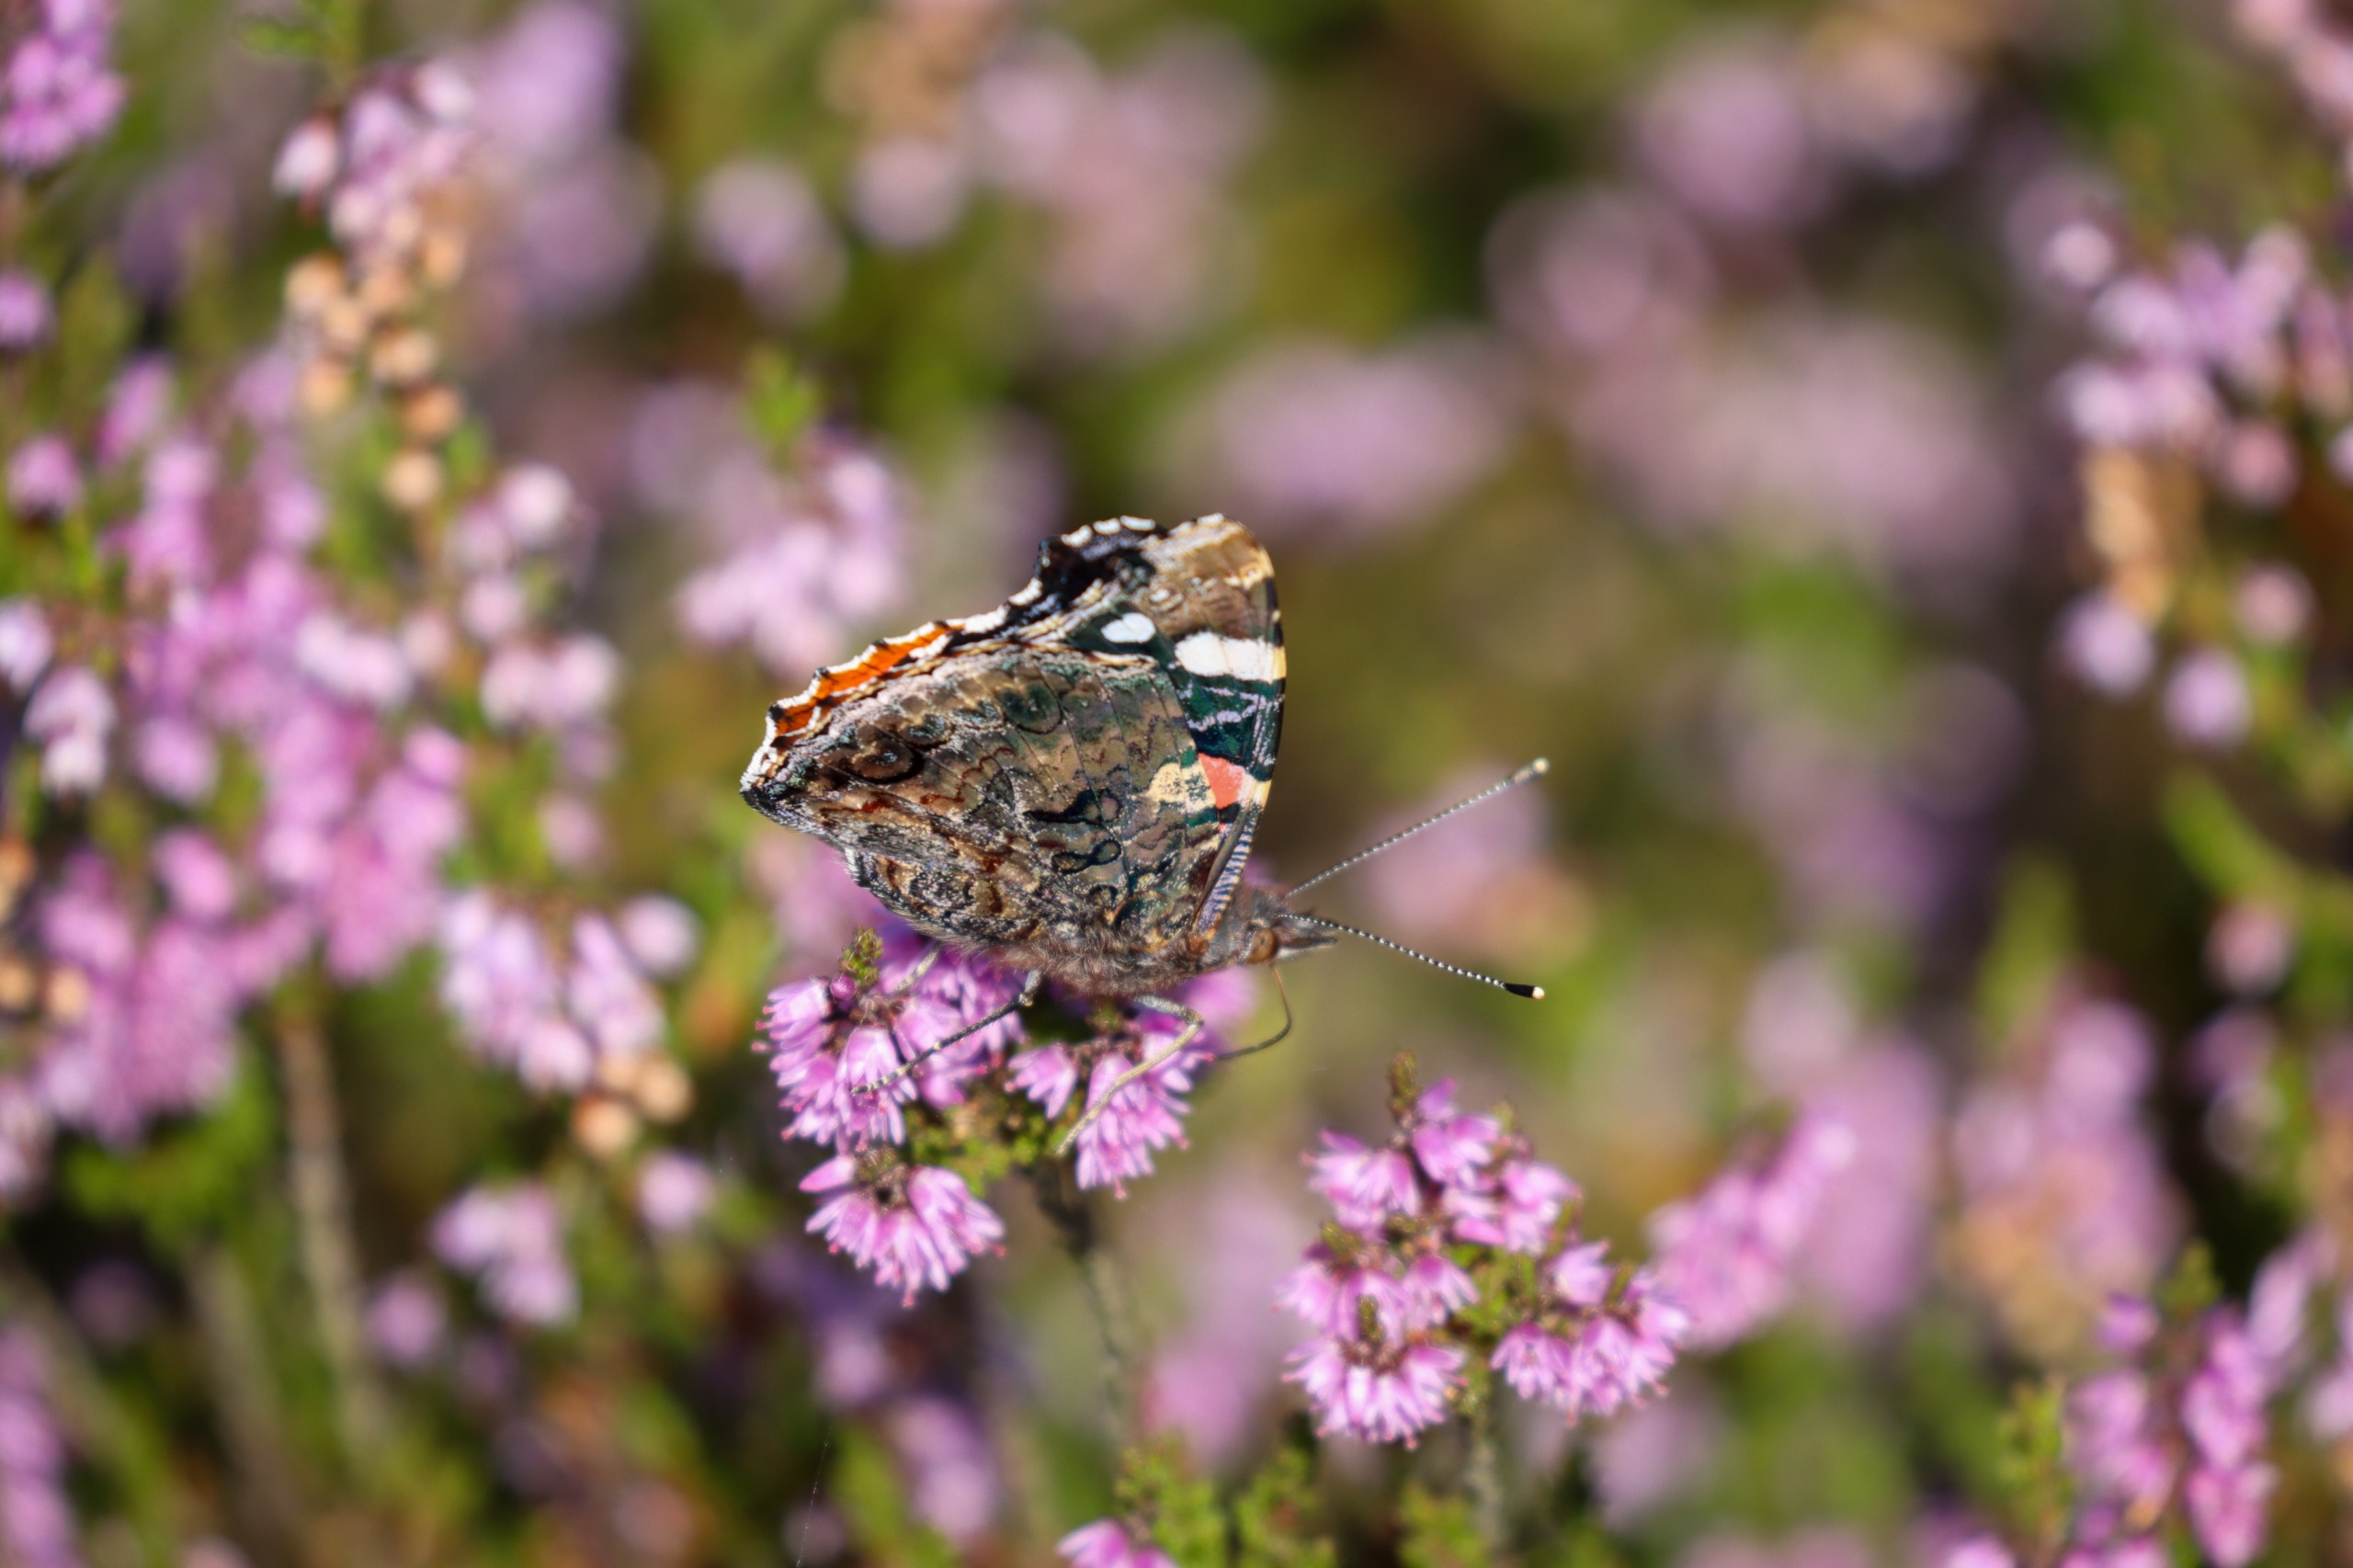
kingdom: Animalia
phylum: Arthropoda
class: Insecta
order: Lepidoptera
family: Nymphalidae
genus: Vanessa
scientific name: Vanessa atalanta
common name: Admiral
